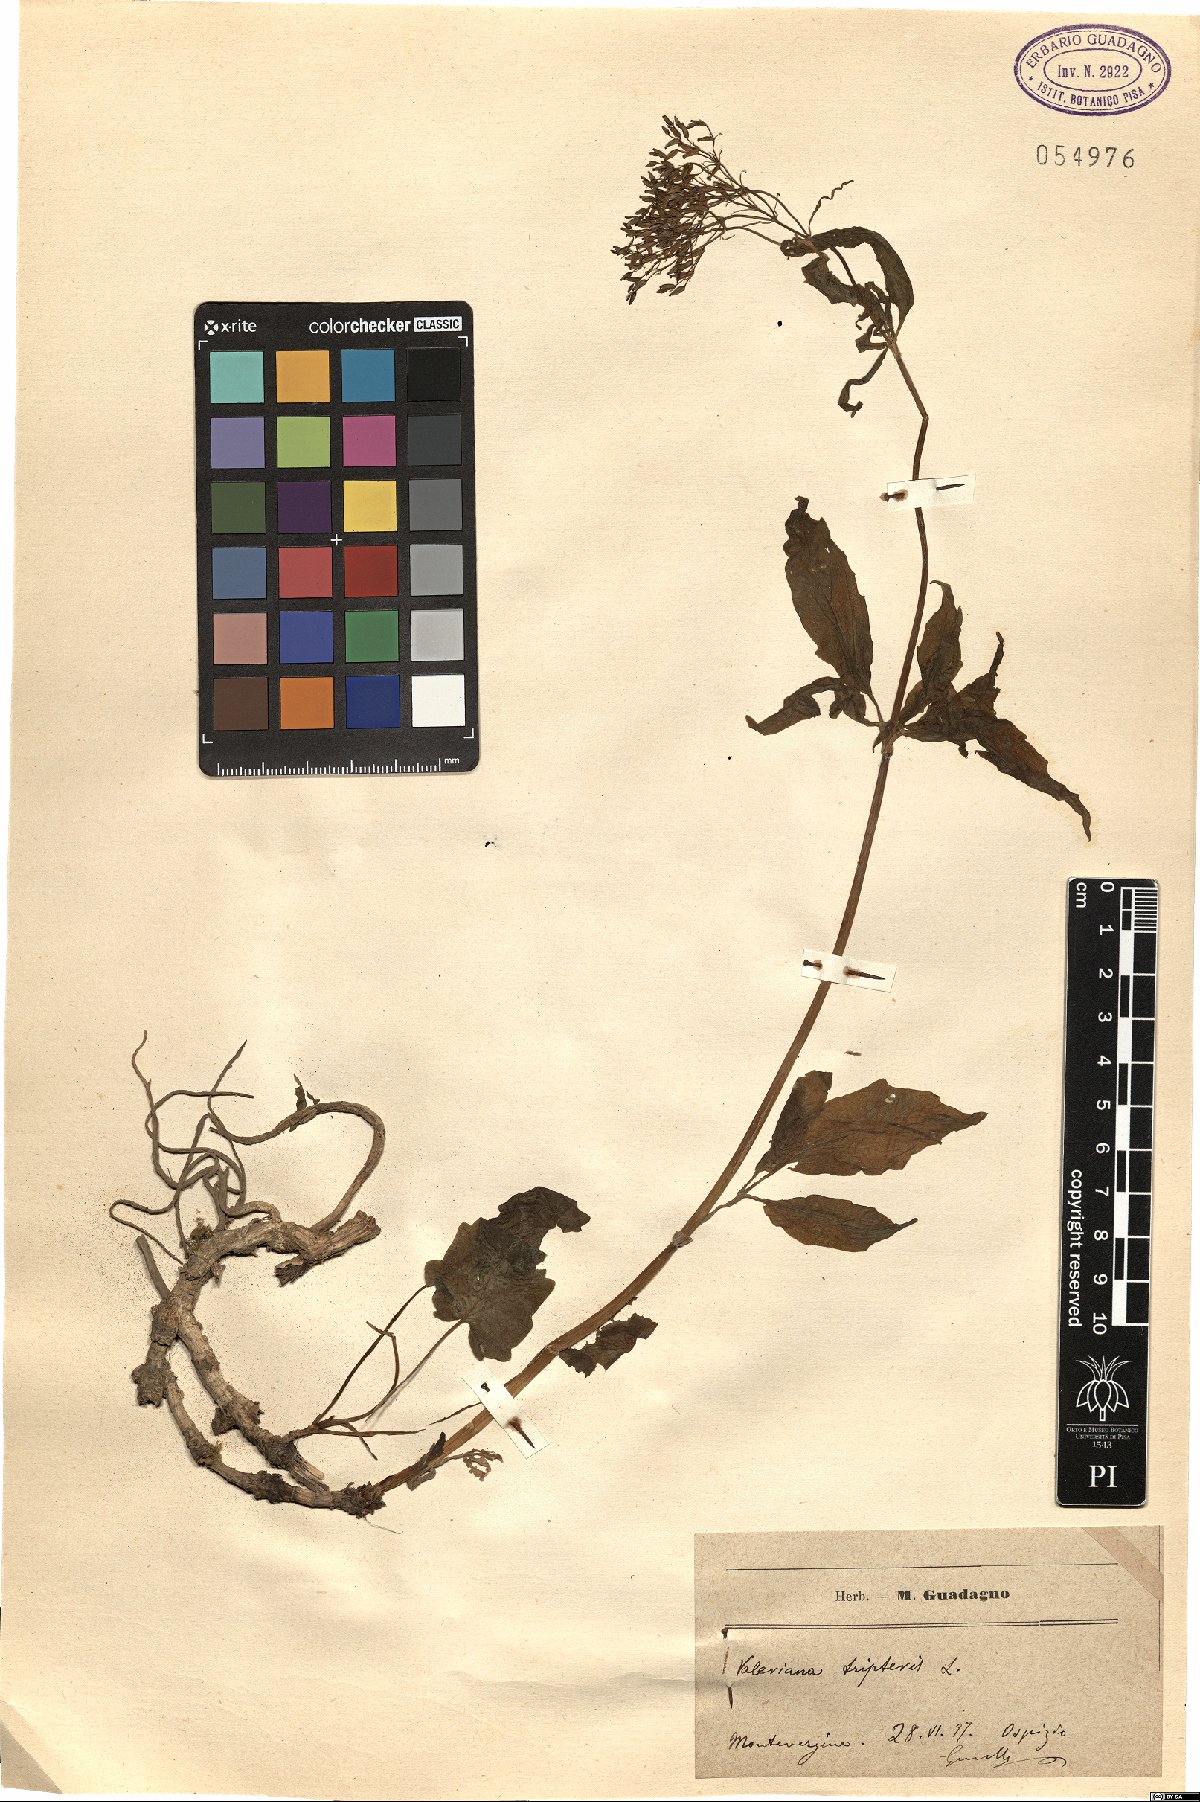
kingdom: Plantae
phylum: Tracheophyta
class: Magnoliopsida
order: Dipsacales
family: Caprifoliaceae
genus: Valeriana
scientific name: Valeriana tripteris
